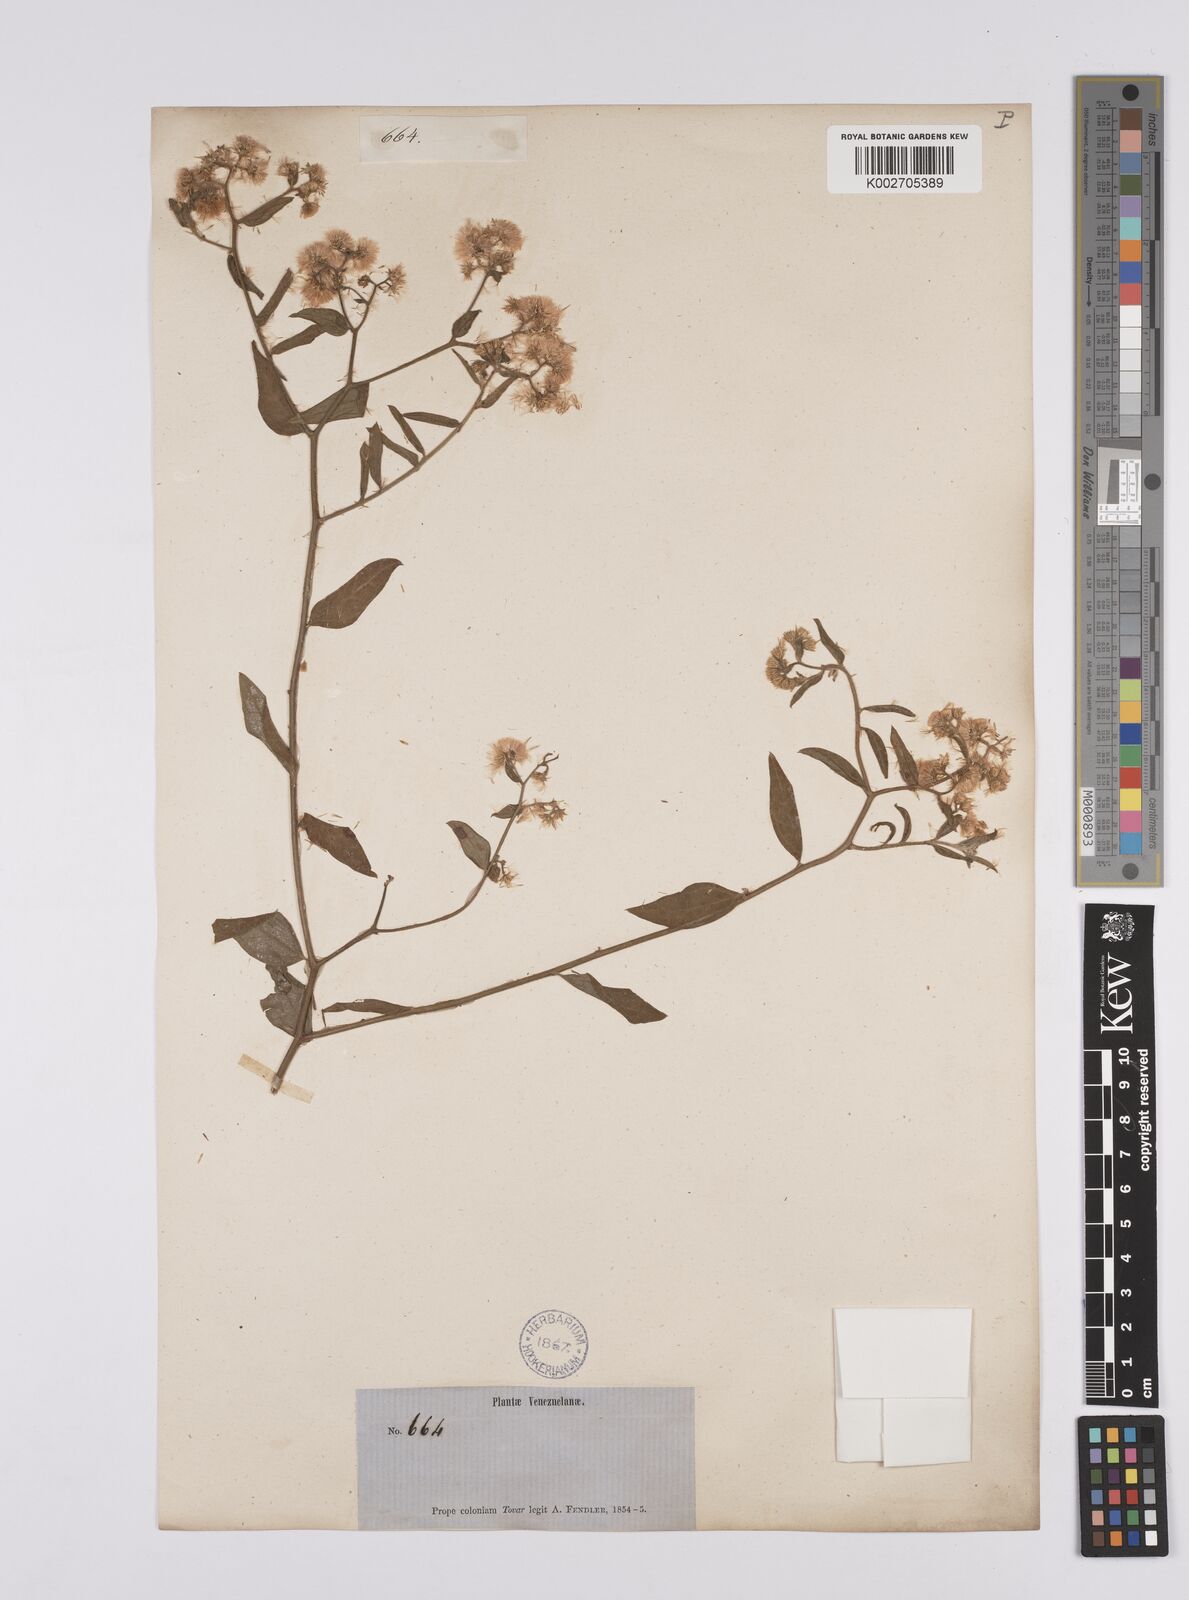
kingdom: Plantae
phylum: Tracheophyta
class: Magnoliopsida
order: Asterales
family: Asteraceae
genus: Baccharis
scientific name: Baccharis trinervis
